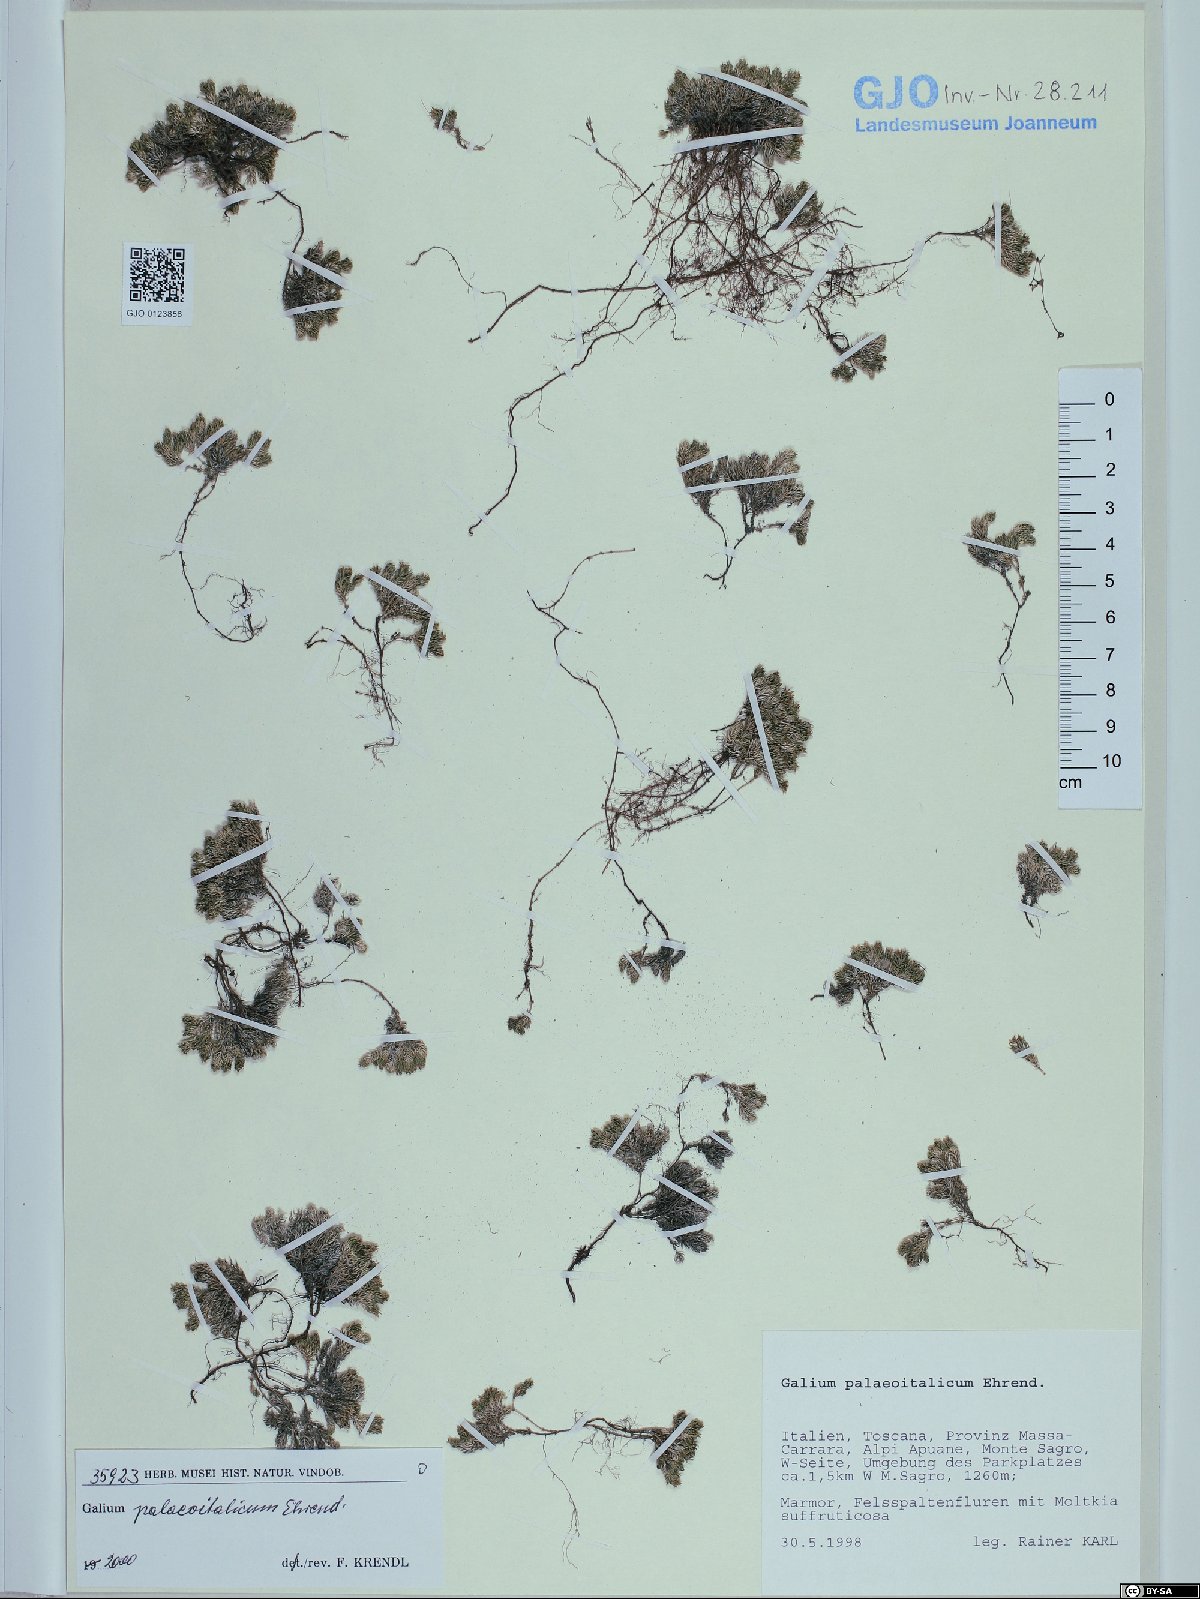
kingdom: Plantae
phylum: Tracheophyta
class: Magnoliopsida
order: Gentianales
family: Rubiaceae
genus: Galium
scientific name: Galium palaeoitalicum
